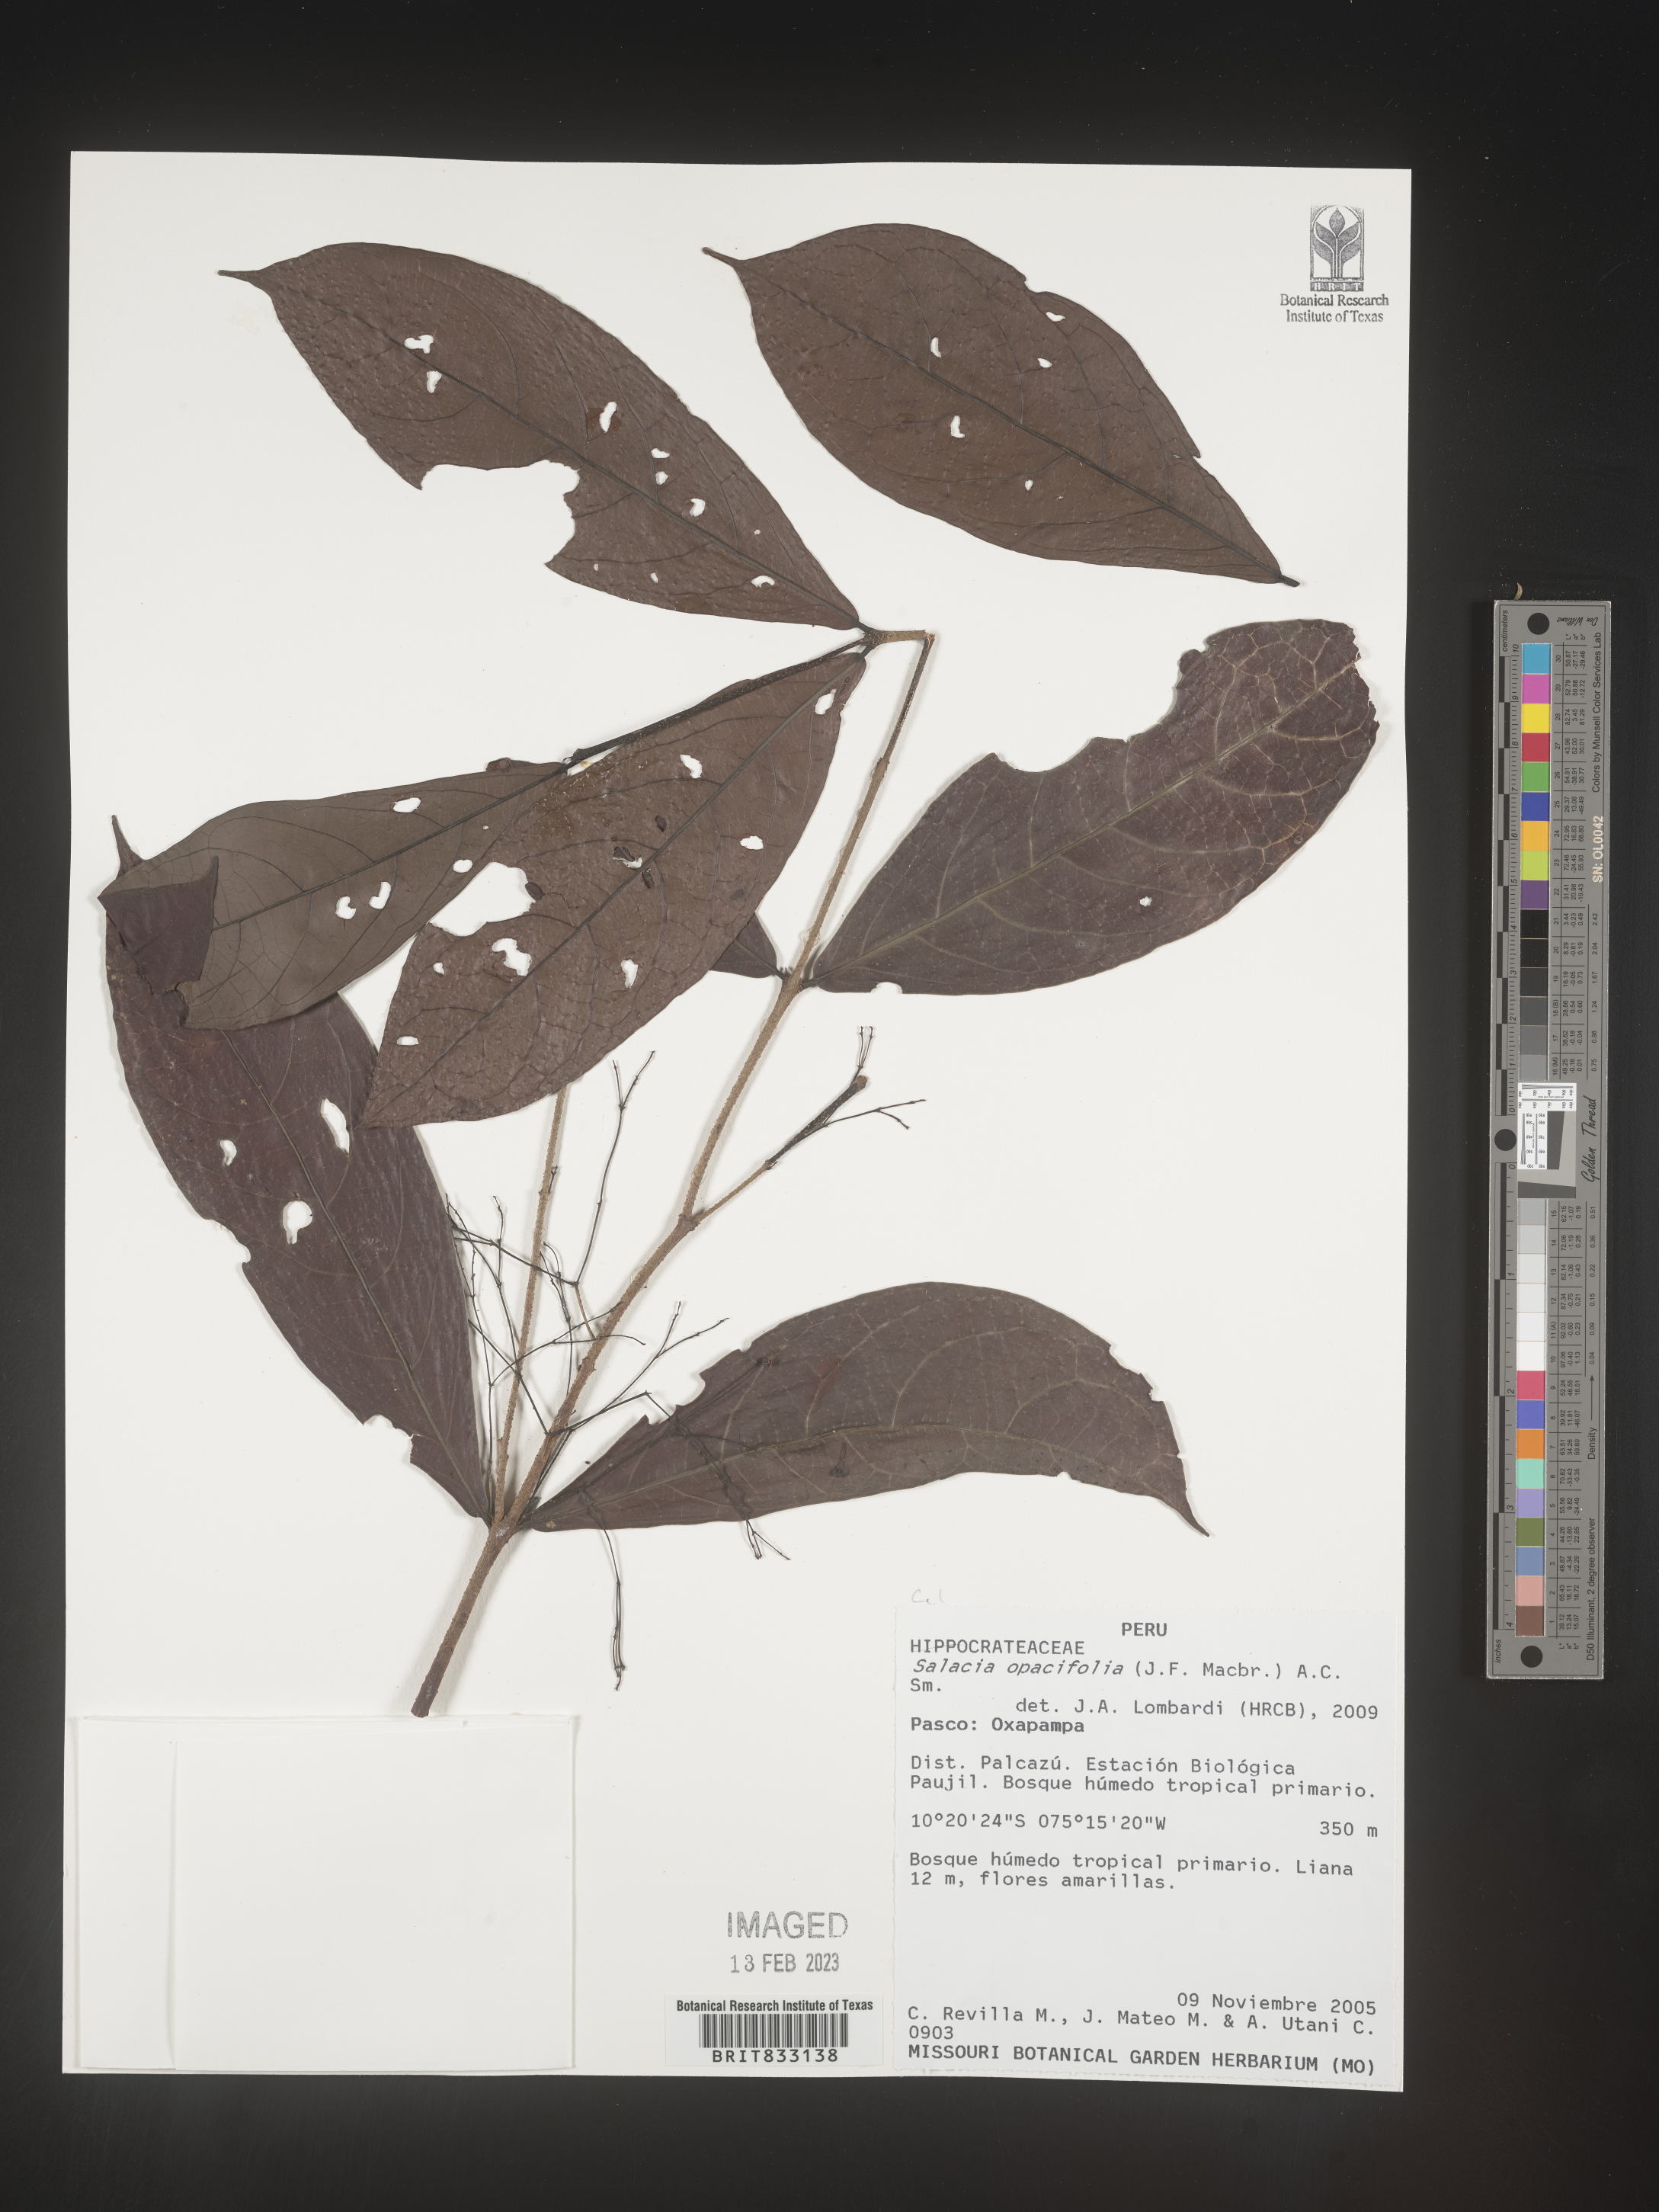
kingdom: Plantae
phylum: Tracheophyta
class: Magnoliopsida
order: Celastrales
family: Celastraceae
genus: Salacia
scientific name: Salacia opacifolia
